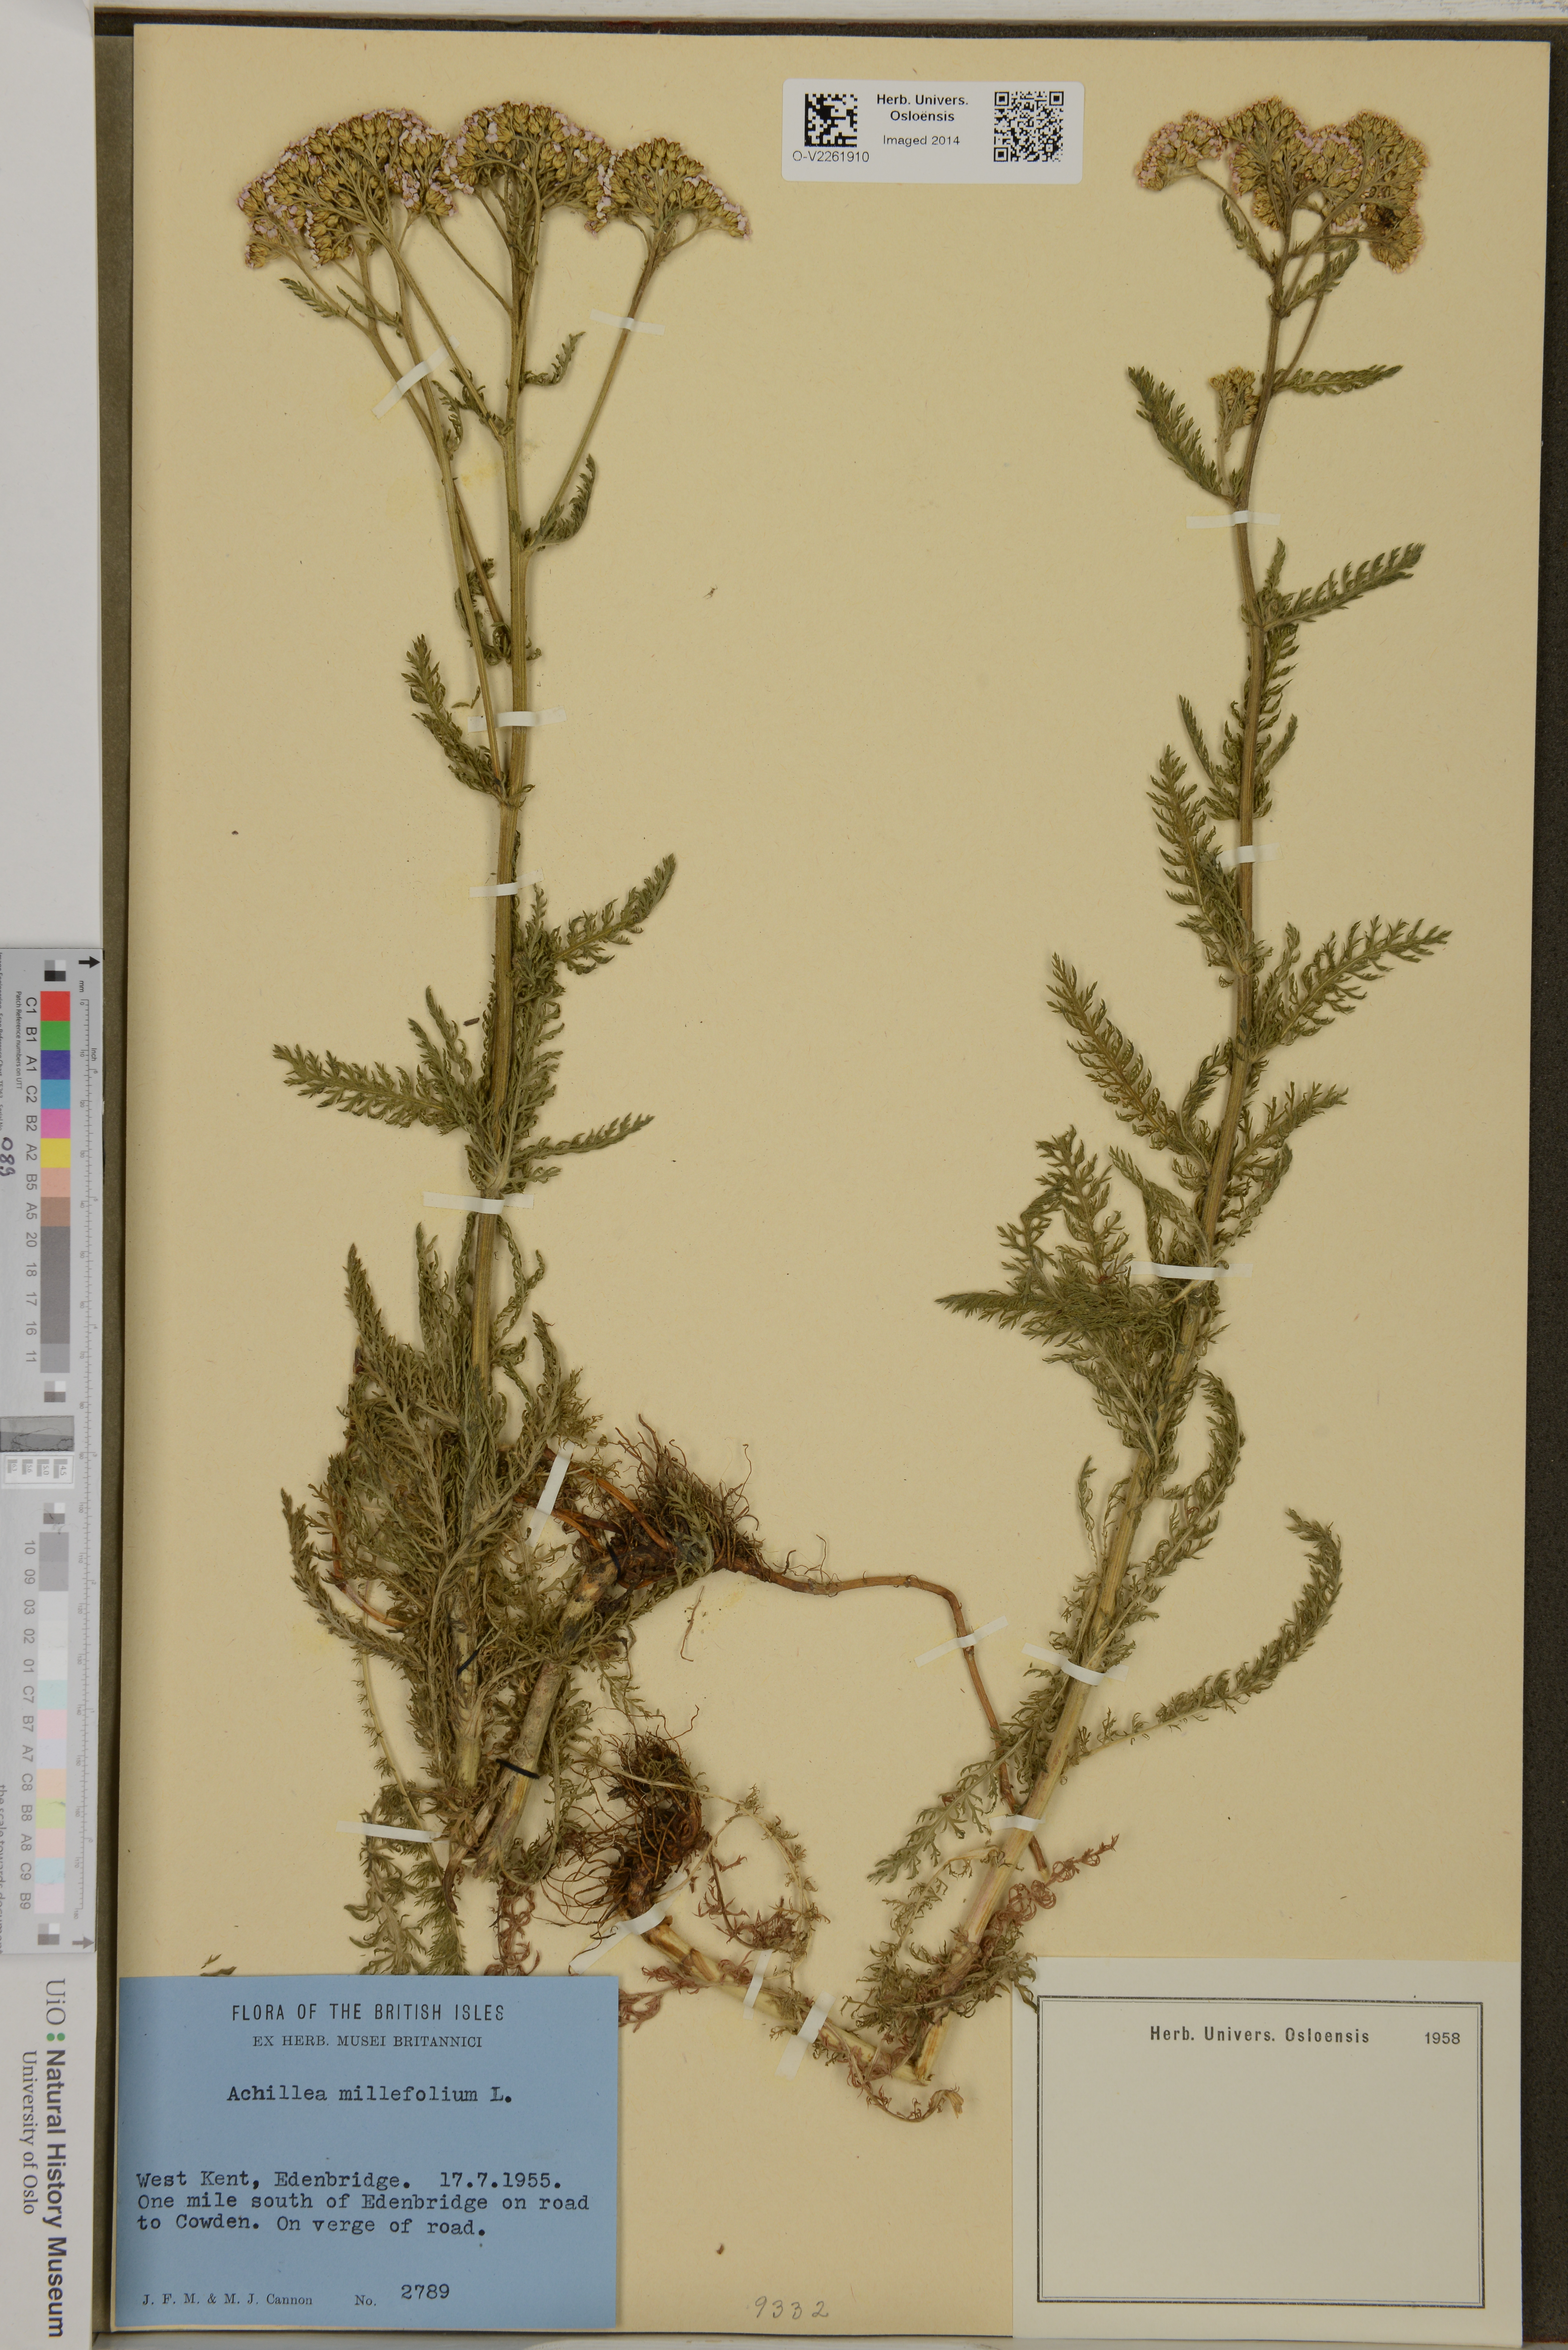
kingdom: Plantae
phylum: Tracheophyta
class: Magnoliopsida
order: Asterales
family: Asteraceae
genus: Achillea
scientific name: Achillea millefolium
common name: Yarrow
